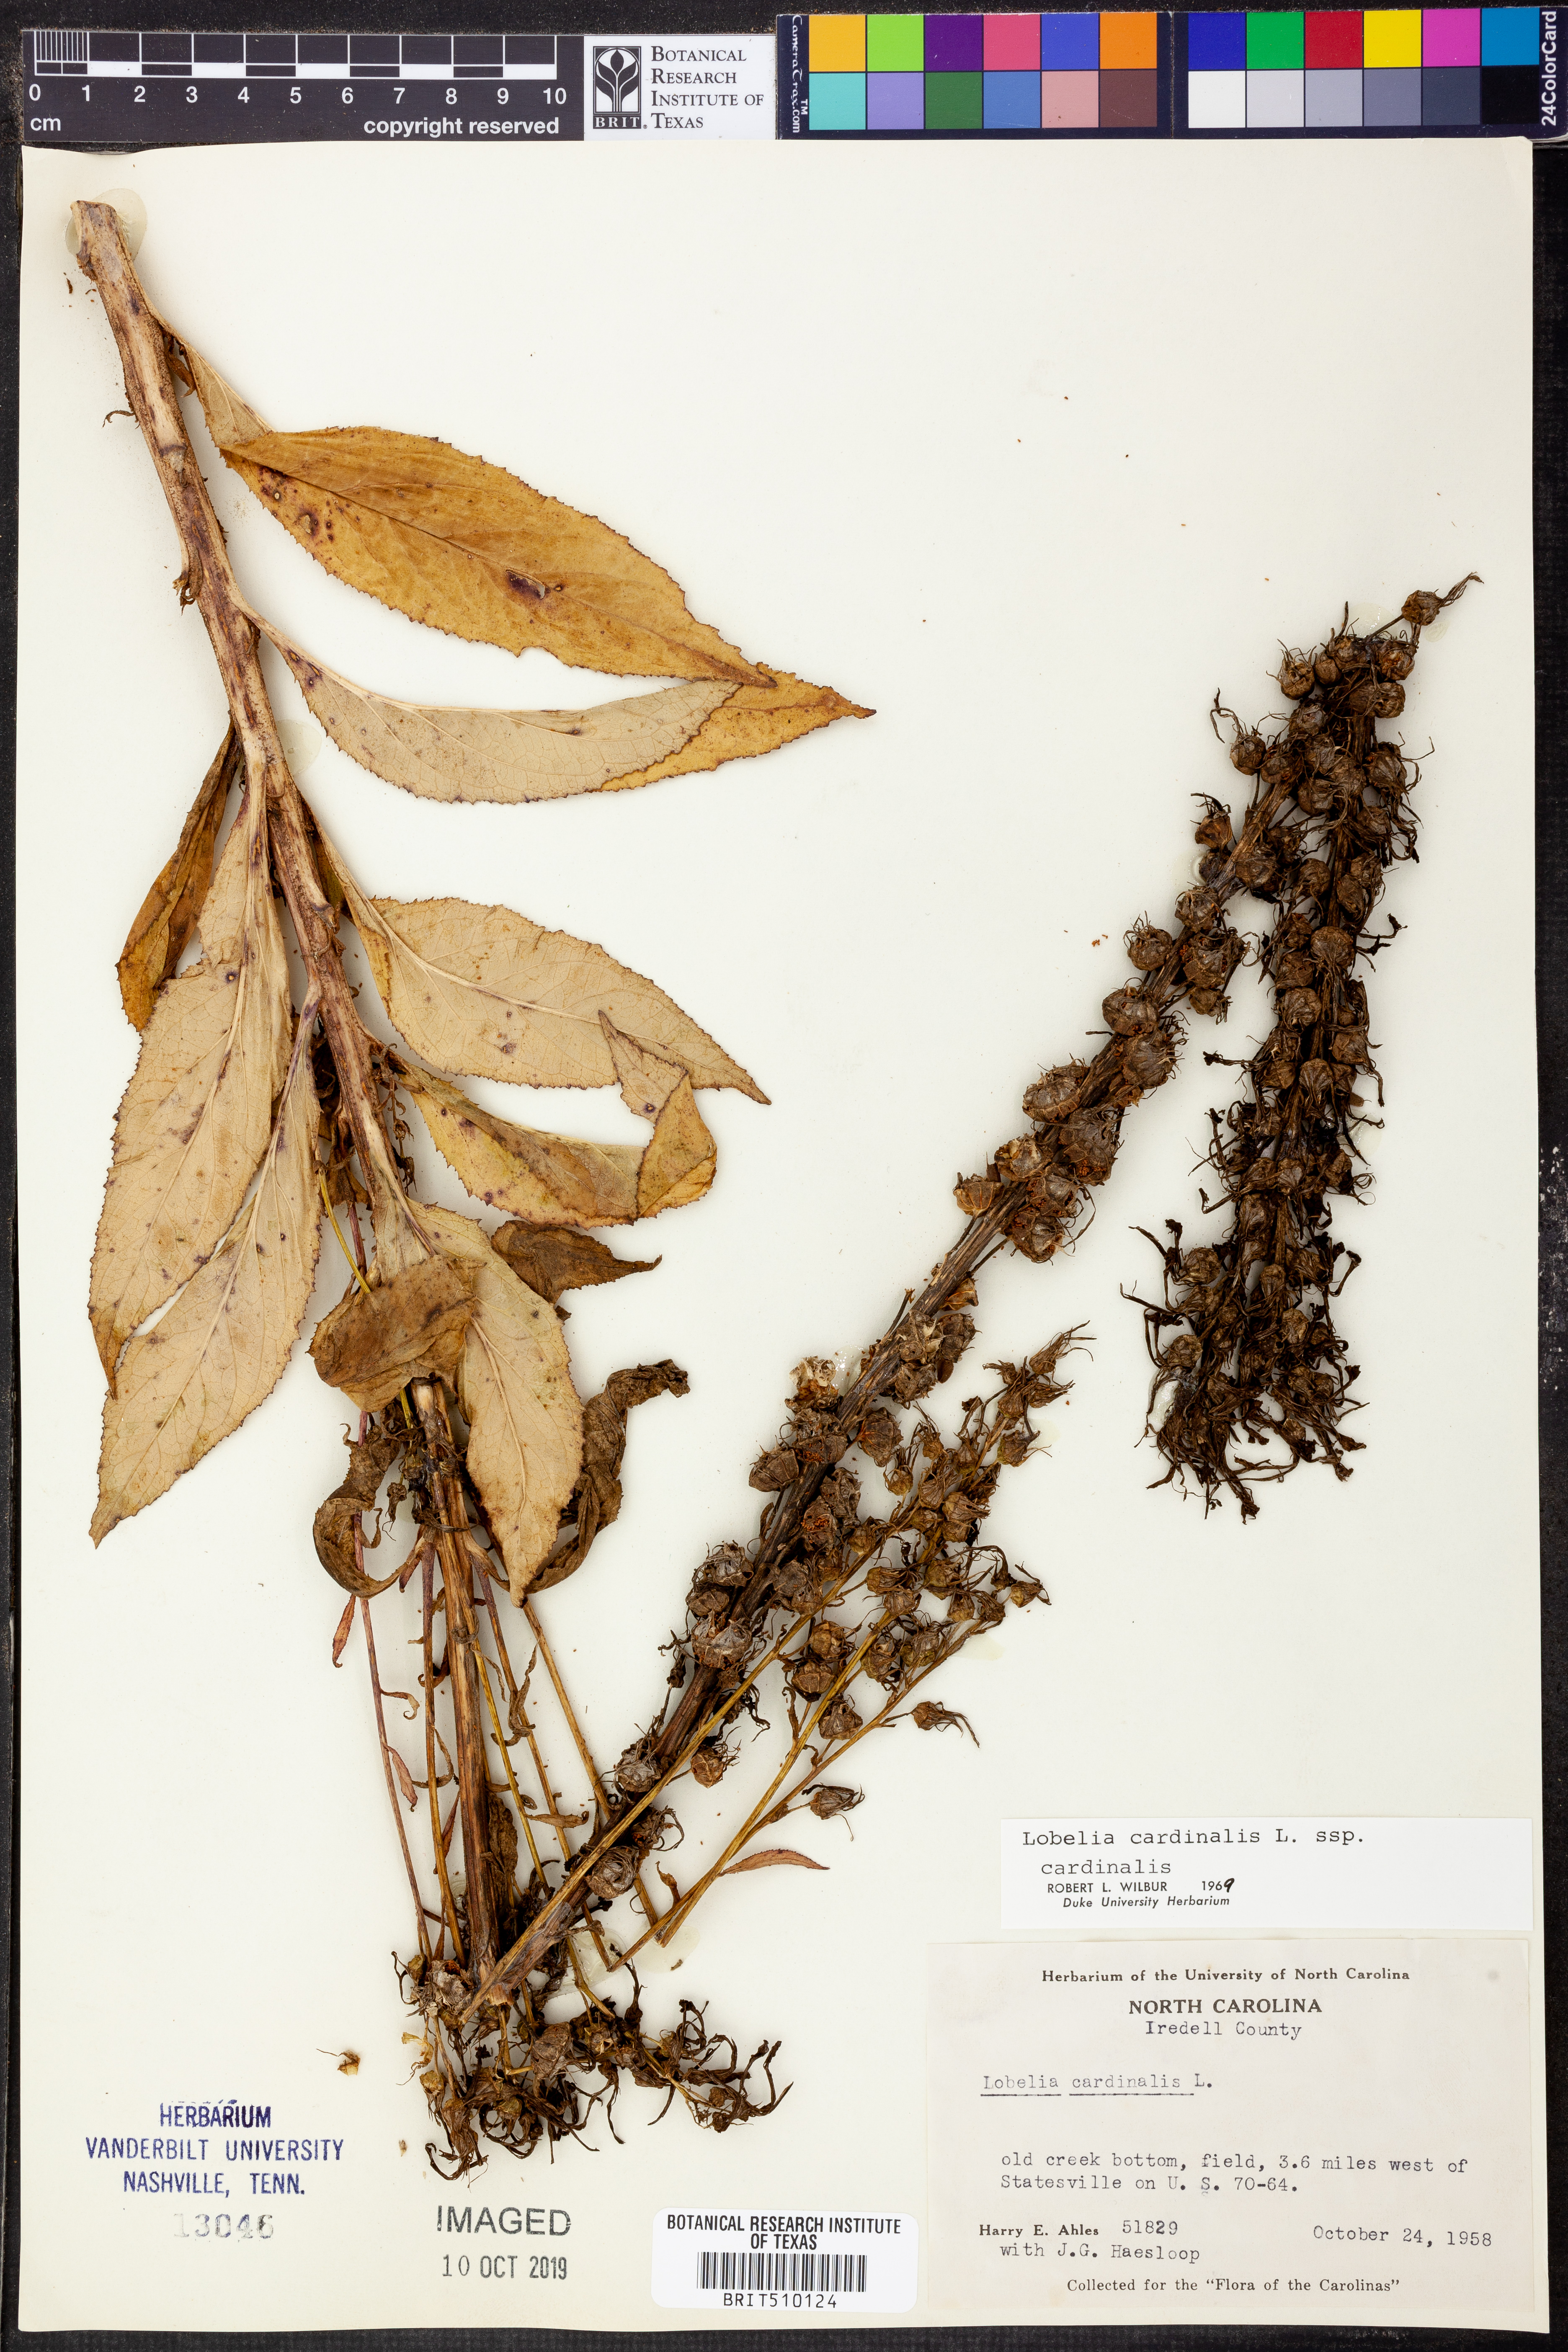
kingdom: Plantae
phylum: Tracheophyta
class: Magnoliopsida
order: Asterales
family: Campanulaceae
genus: Lobelia
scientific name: Lobelia cardinalis
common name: Cardinal flower
